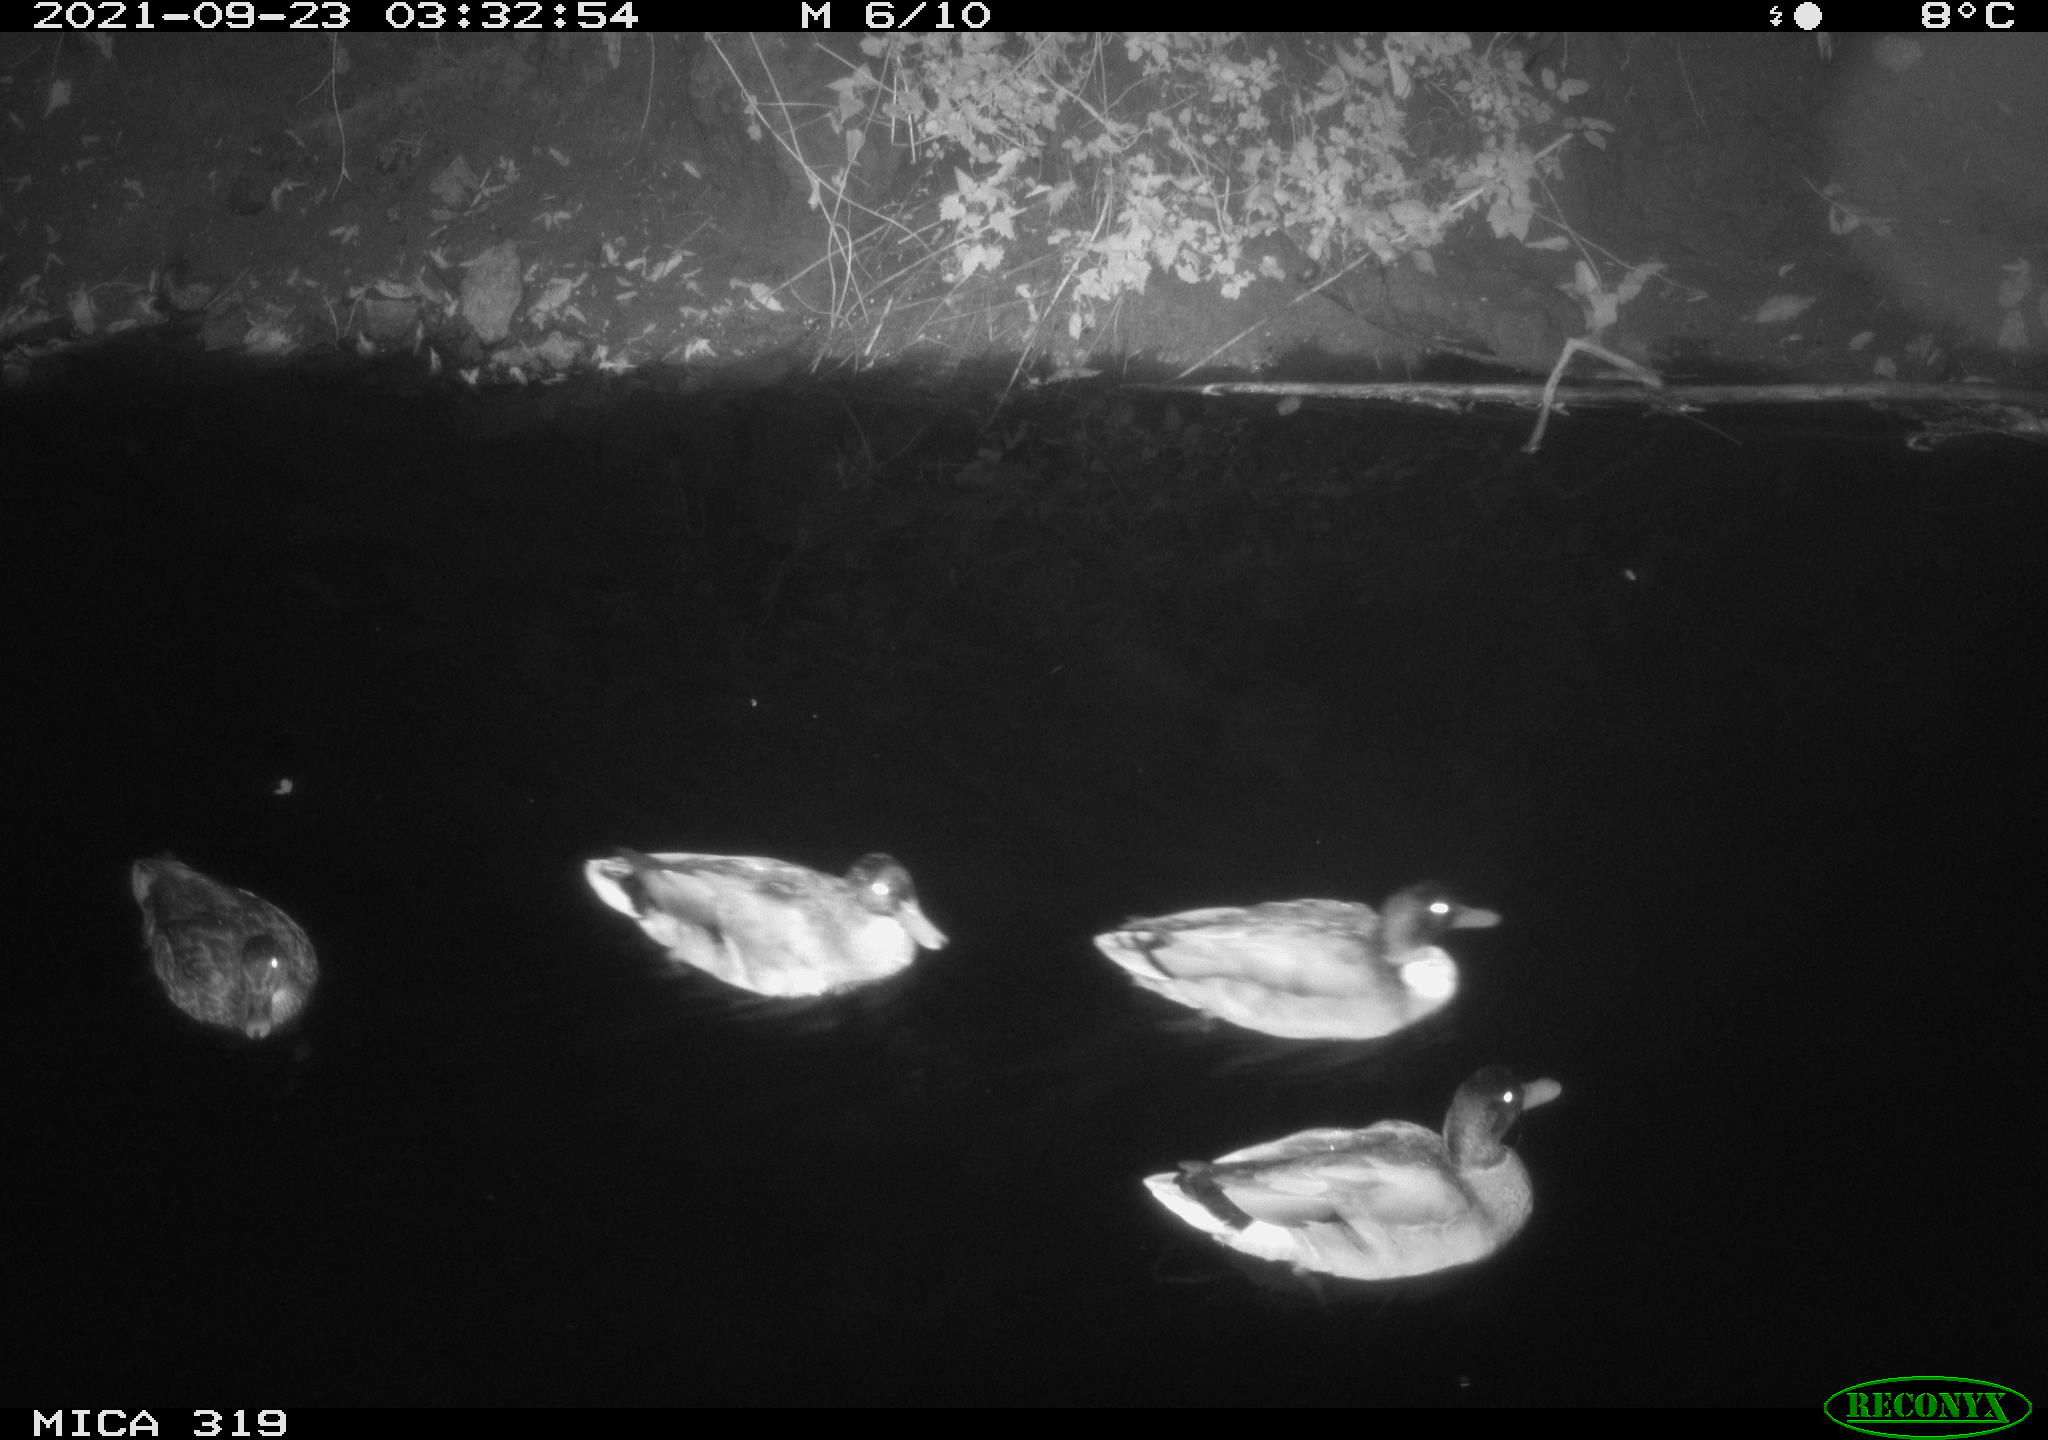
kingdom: Animalia
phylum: Chordata
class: Aves
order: Anseriformes
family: Anatidae
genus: Anas
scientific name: Anas platyrhynchos
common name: Mallard
